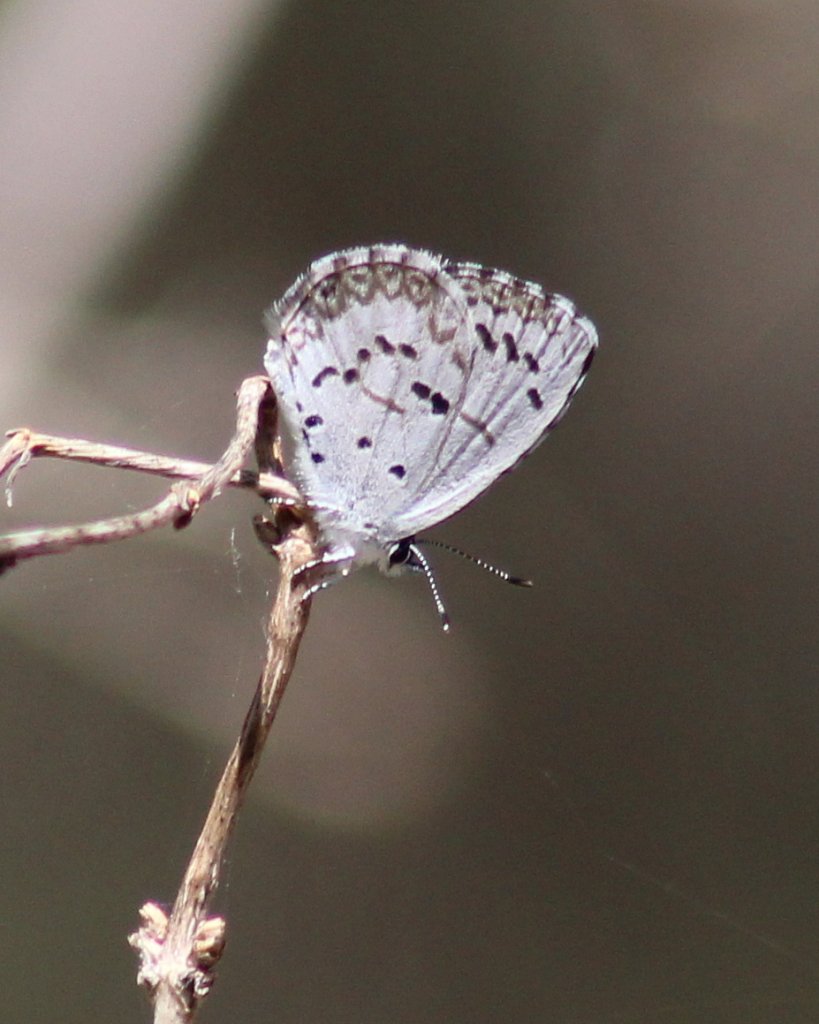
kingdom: Animalia
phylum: Arthropoda
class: Insecta
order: Lepidoptera
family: Lycaenidae
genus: Celastrina
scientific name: Celastrina lucia
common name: Northern Spring Azure
